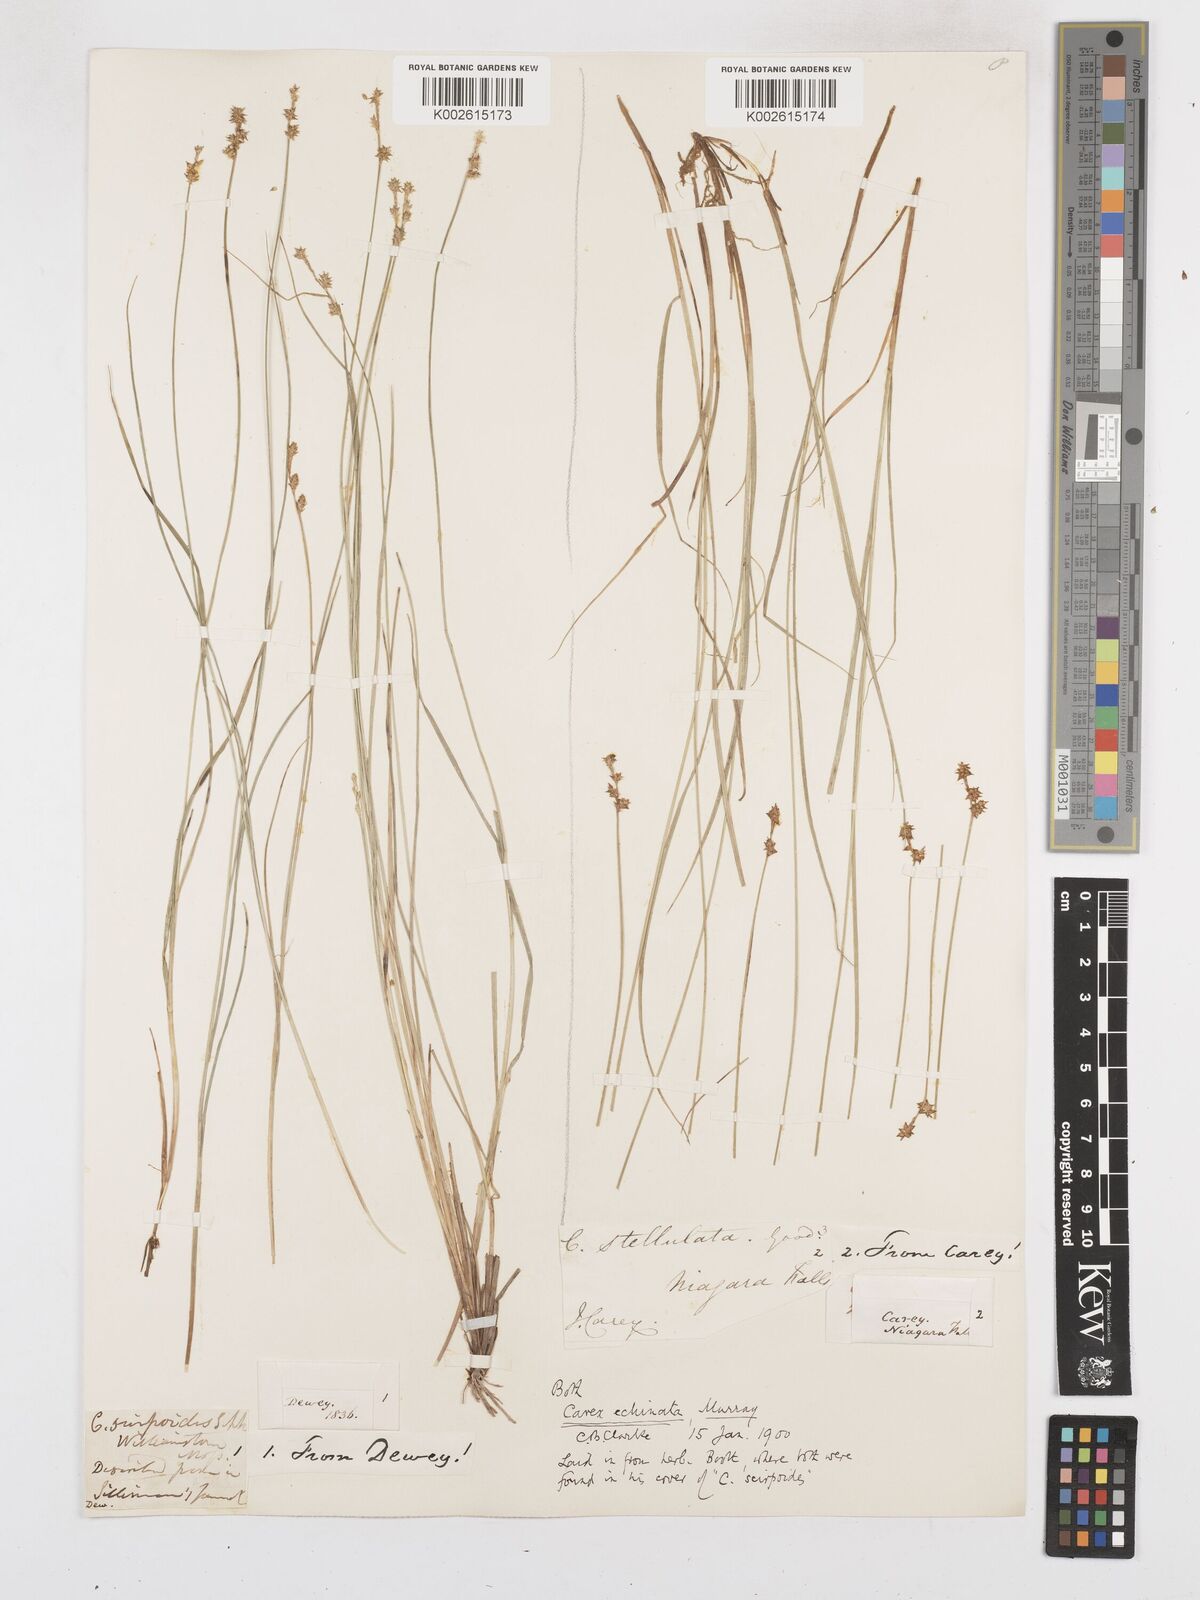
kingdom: Plantae
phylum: Tracheophyta
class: Liliopsida
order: Poales
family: Cyperaceae
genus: Carex
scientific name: Carex echinata
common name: Star sedge
